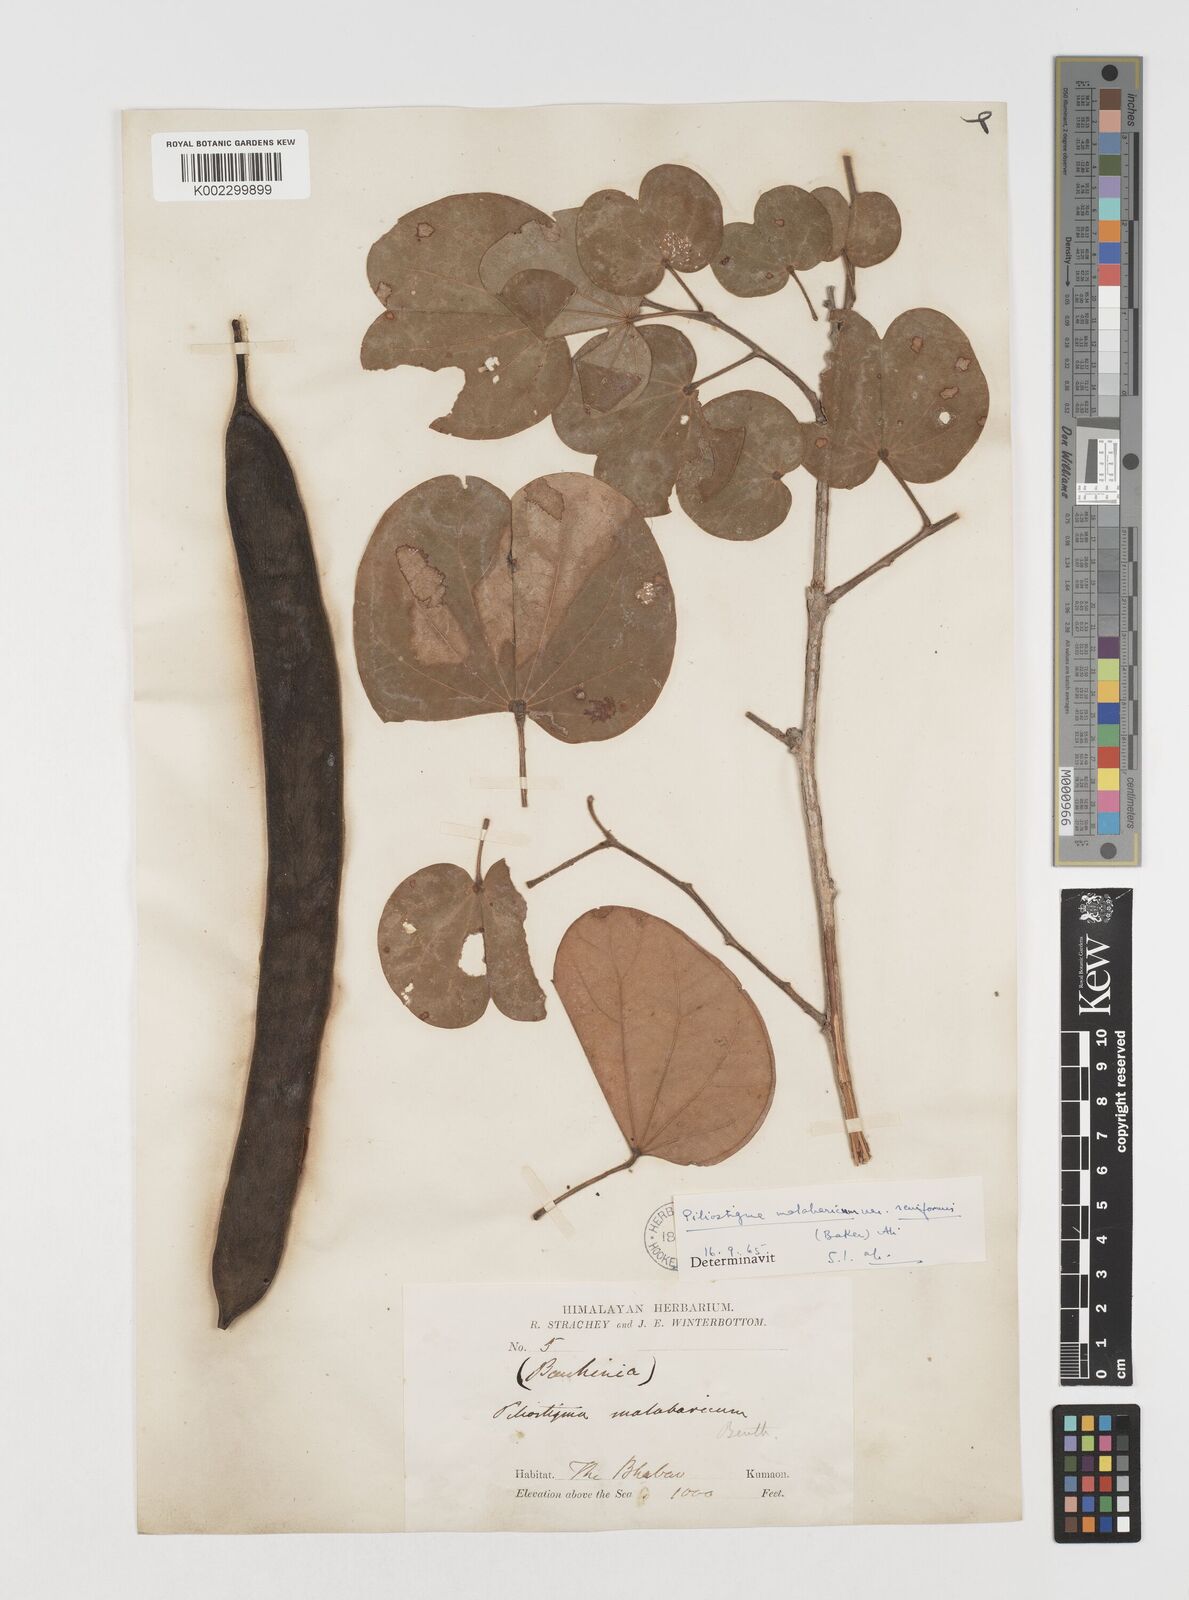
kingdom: Plantae
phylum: Tracheophyta
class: Magnoliopsida
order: Fabales
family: Fabaceae
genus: Piliostigma
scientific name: Piliostigma malabaricum
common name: Malabar bauhinia
